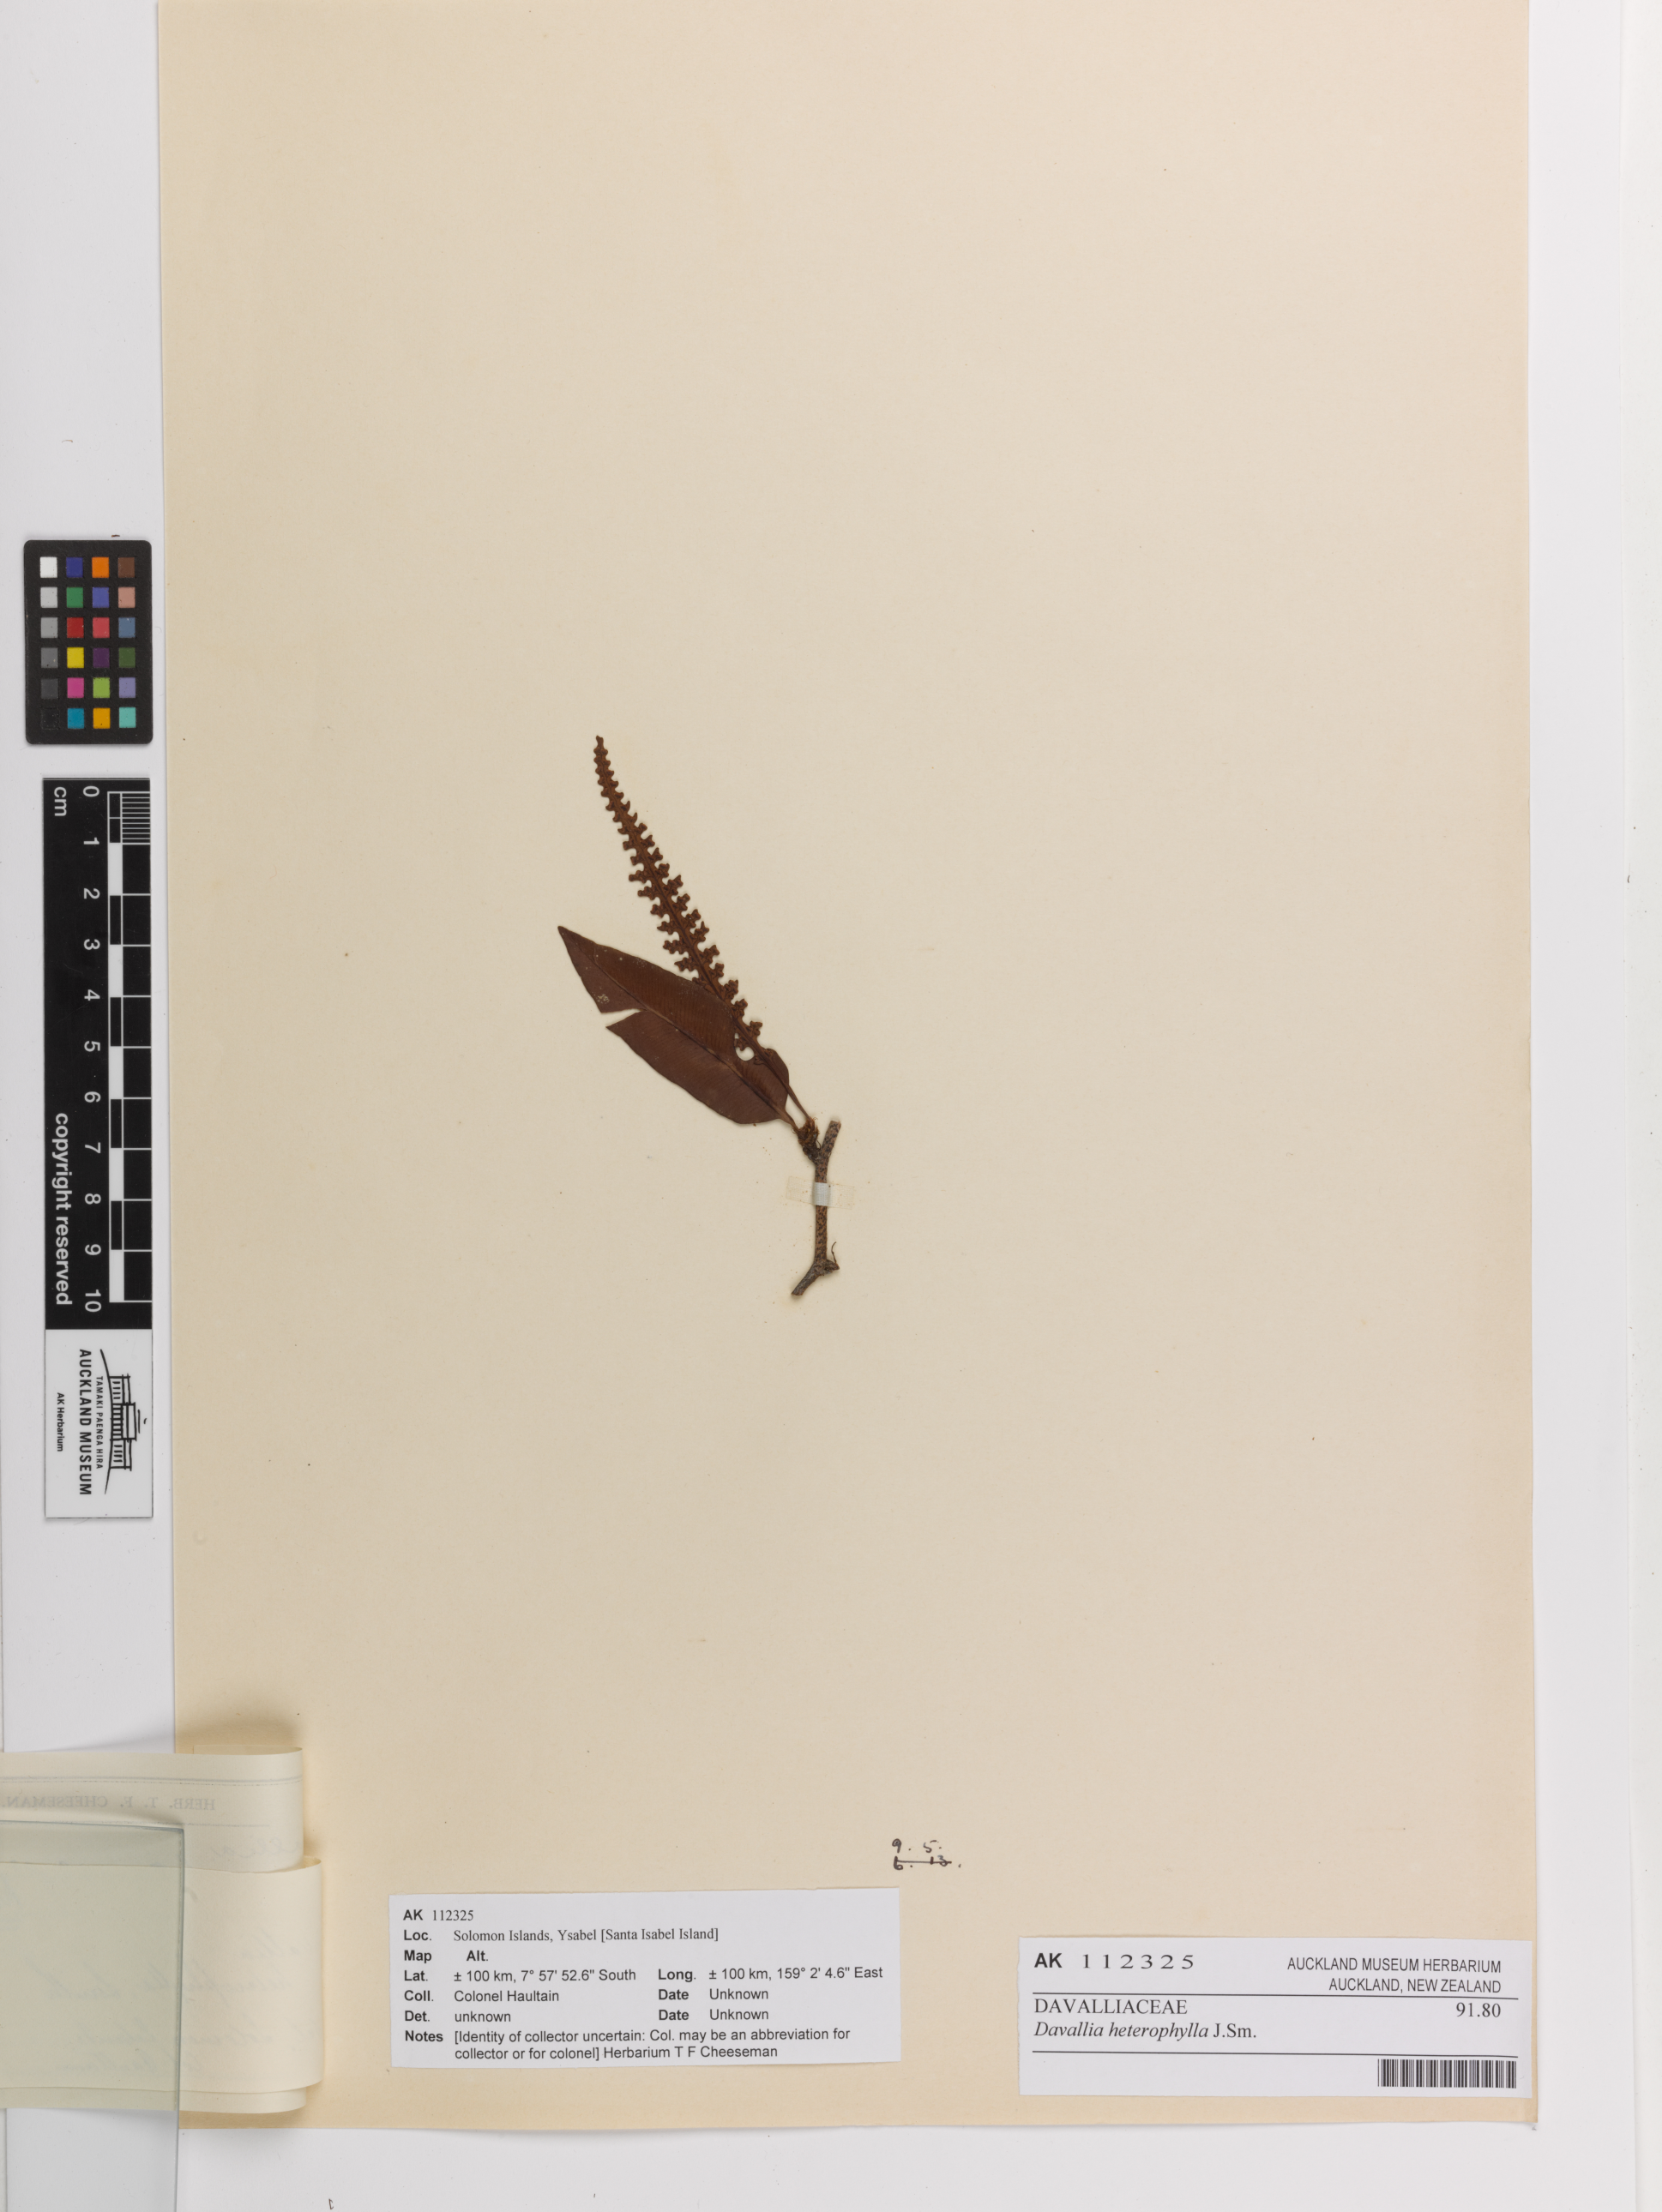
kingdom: Plantae
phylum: Tracheophyta
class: Polypodiopsida
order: Polypodiales
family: Davalliaceae
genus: Davallia
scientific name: Davallia heterophylla
